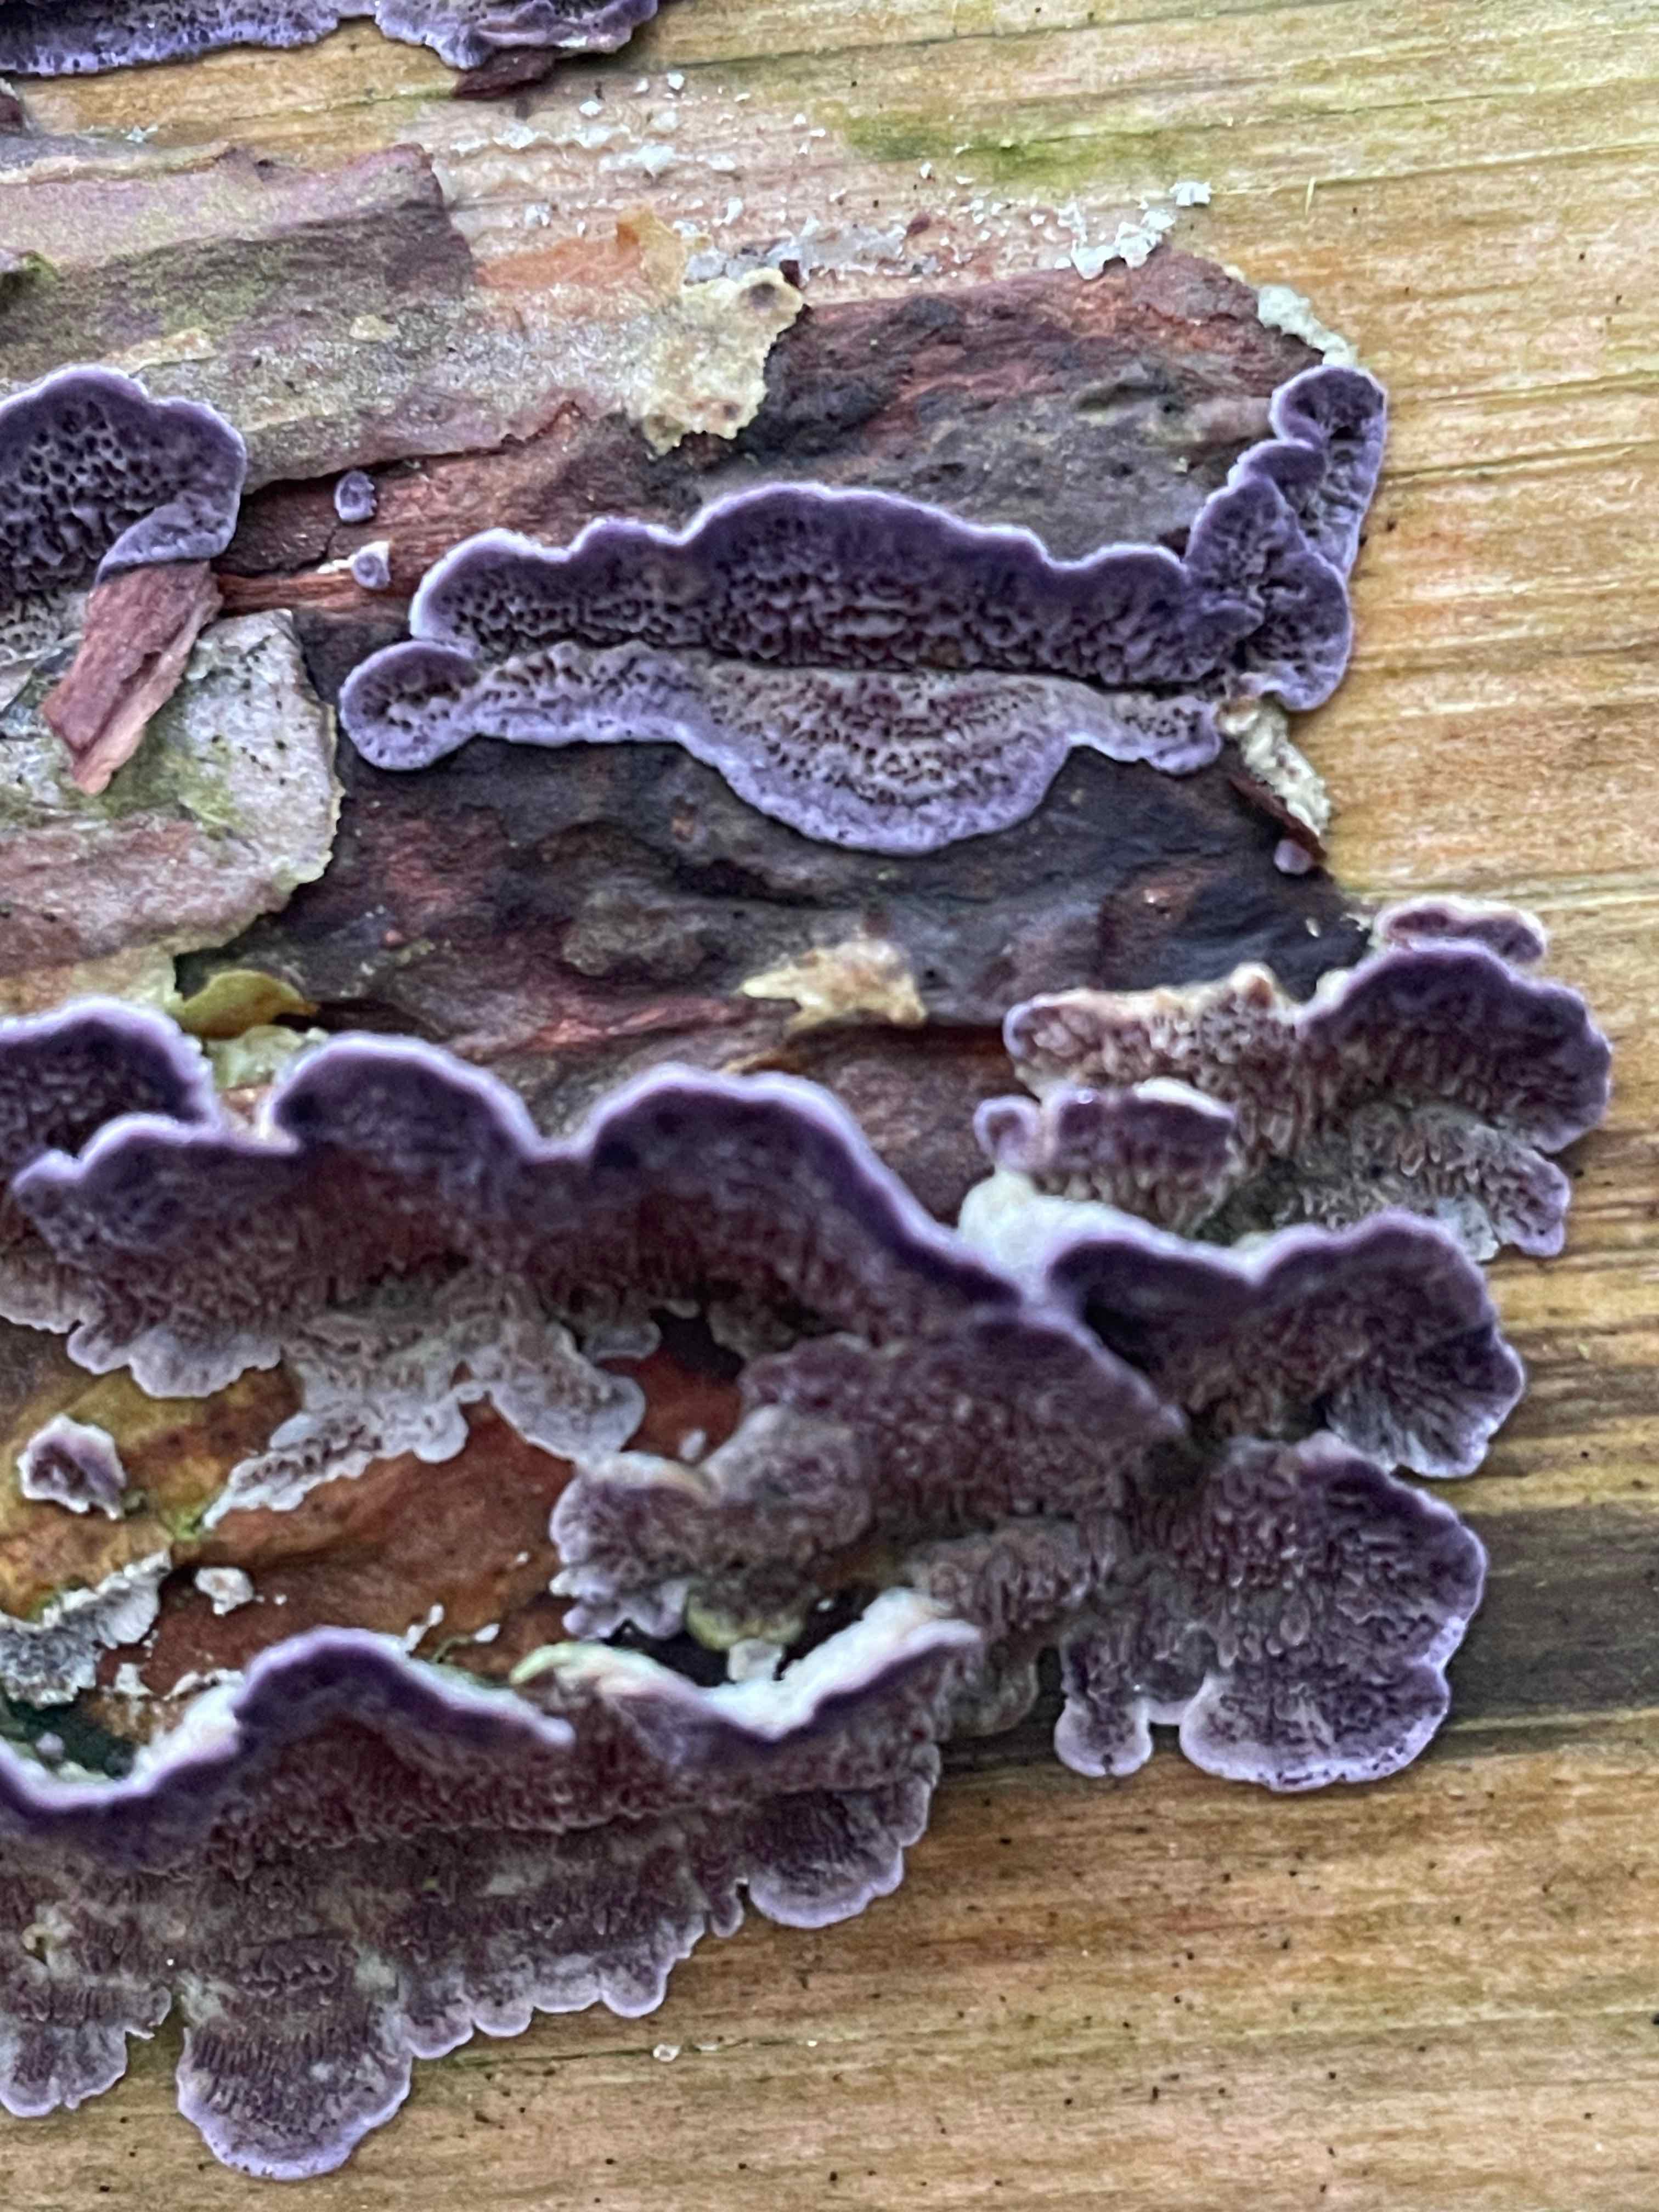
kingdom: Fungi
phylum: Basidiomycota
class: Agaricomycetes
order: Hymenochaetales
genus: Trichaptum
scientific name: Trichaptum abietinum
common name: almindelig violporesvamp
